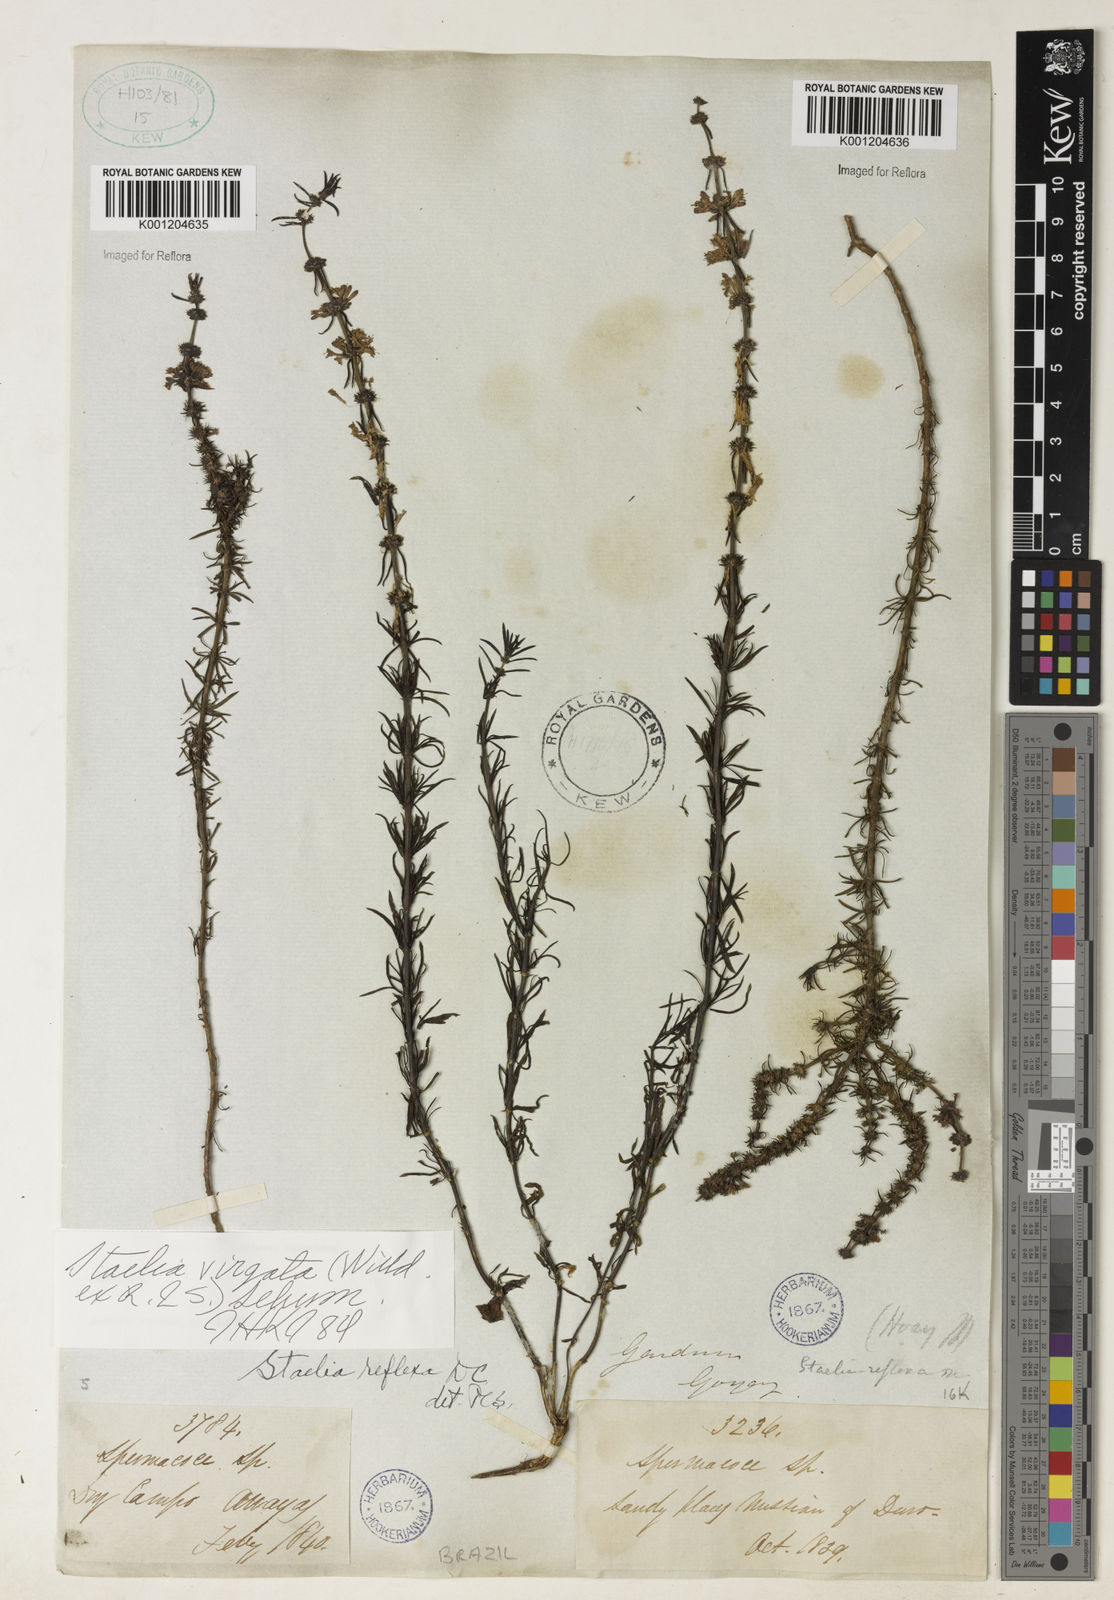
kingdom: Plantae
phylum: Tracheophyta
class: Magnoliopsida
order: Gentianales
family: Rubiaceae
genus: Staelia
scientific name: Staelia virgata
